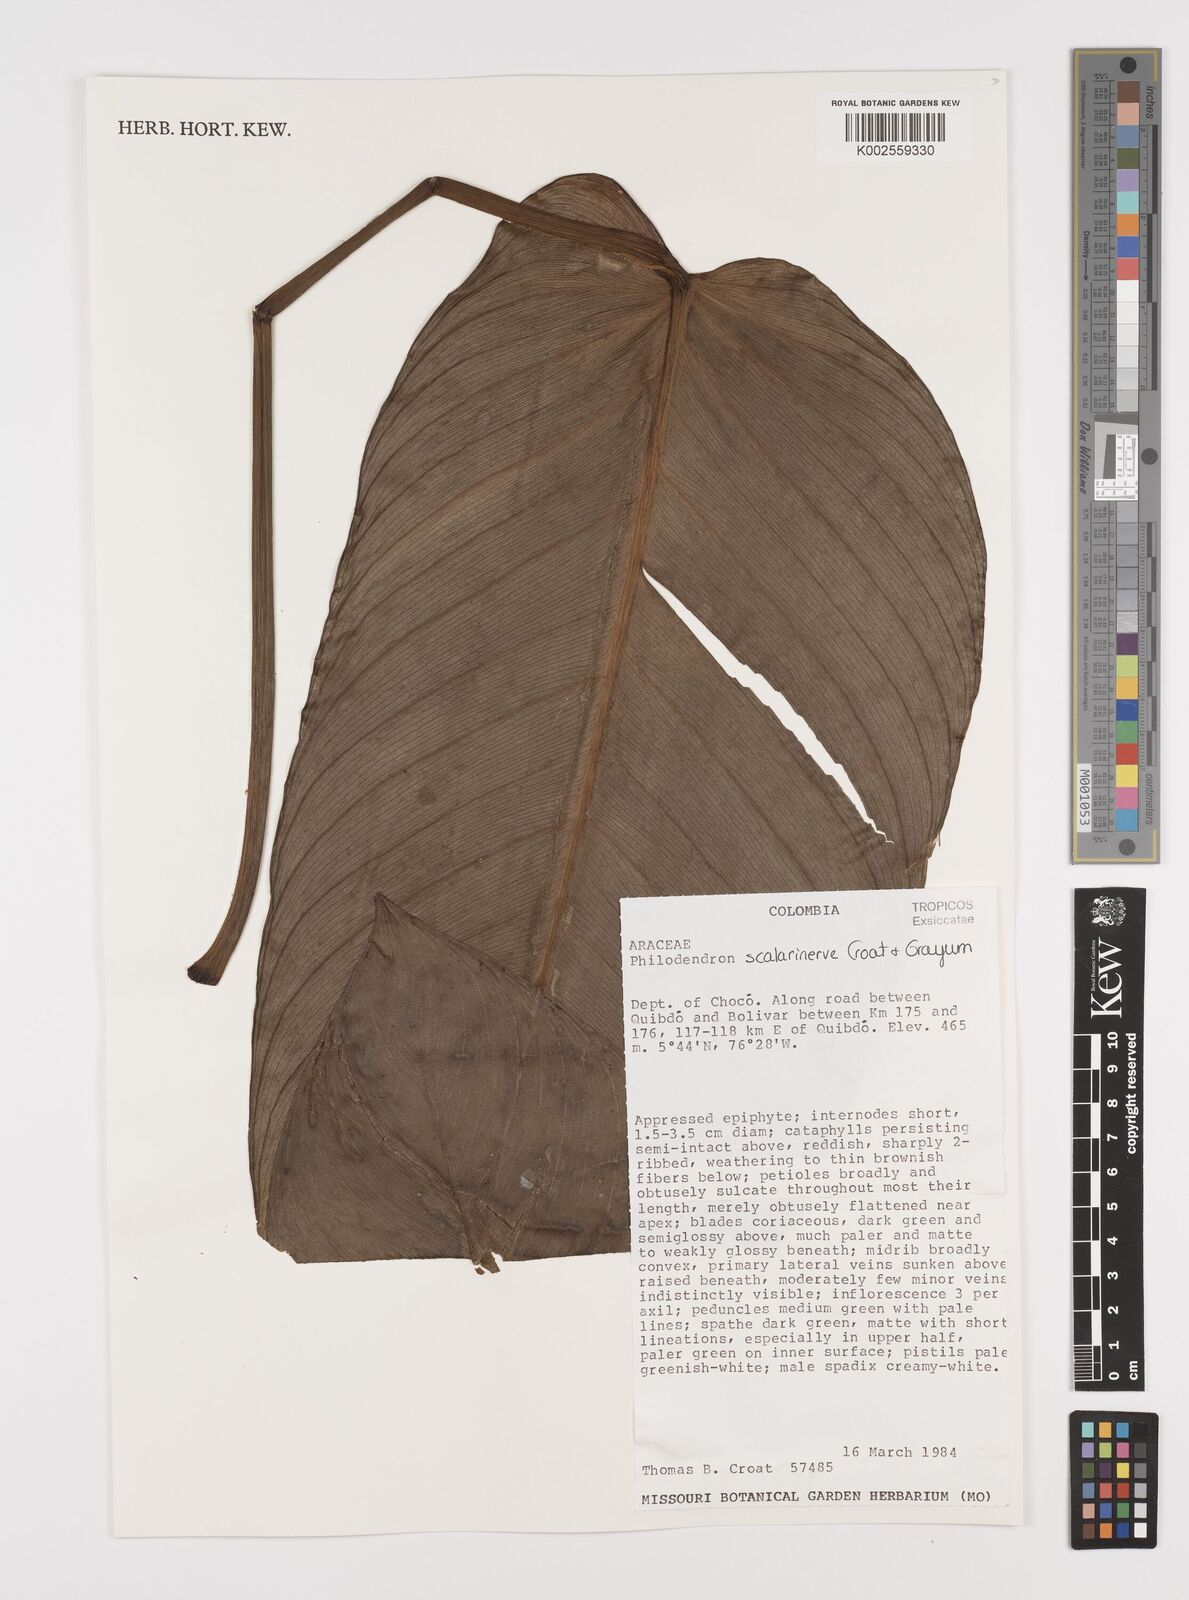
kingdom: Plantae
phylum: Tracheophyta
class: Liliopsida
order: Alismatales
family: Araceae
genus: Philodendron
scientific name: Philodendron scalarinerve
